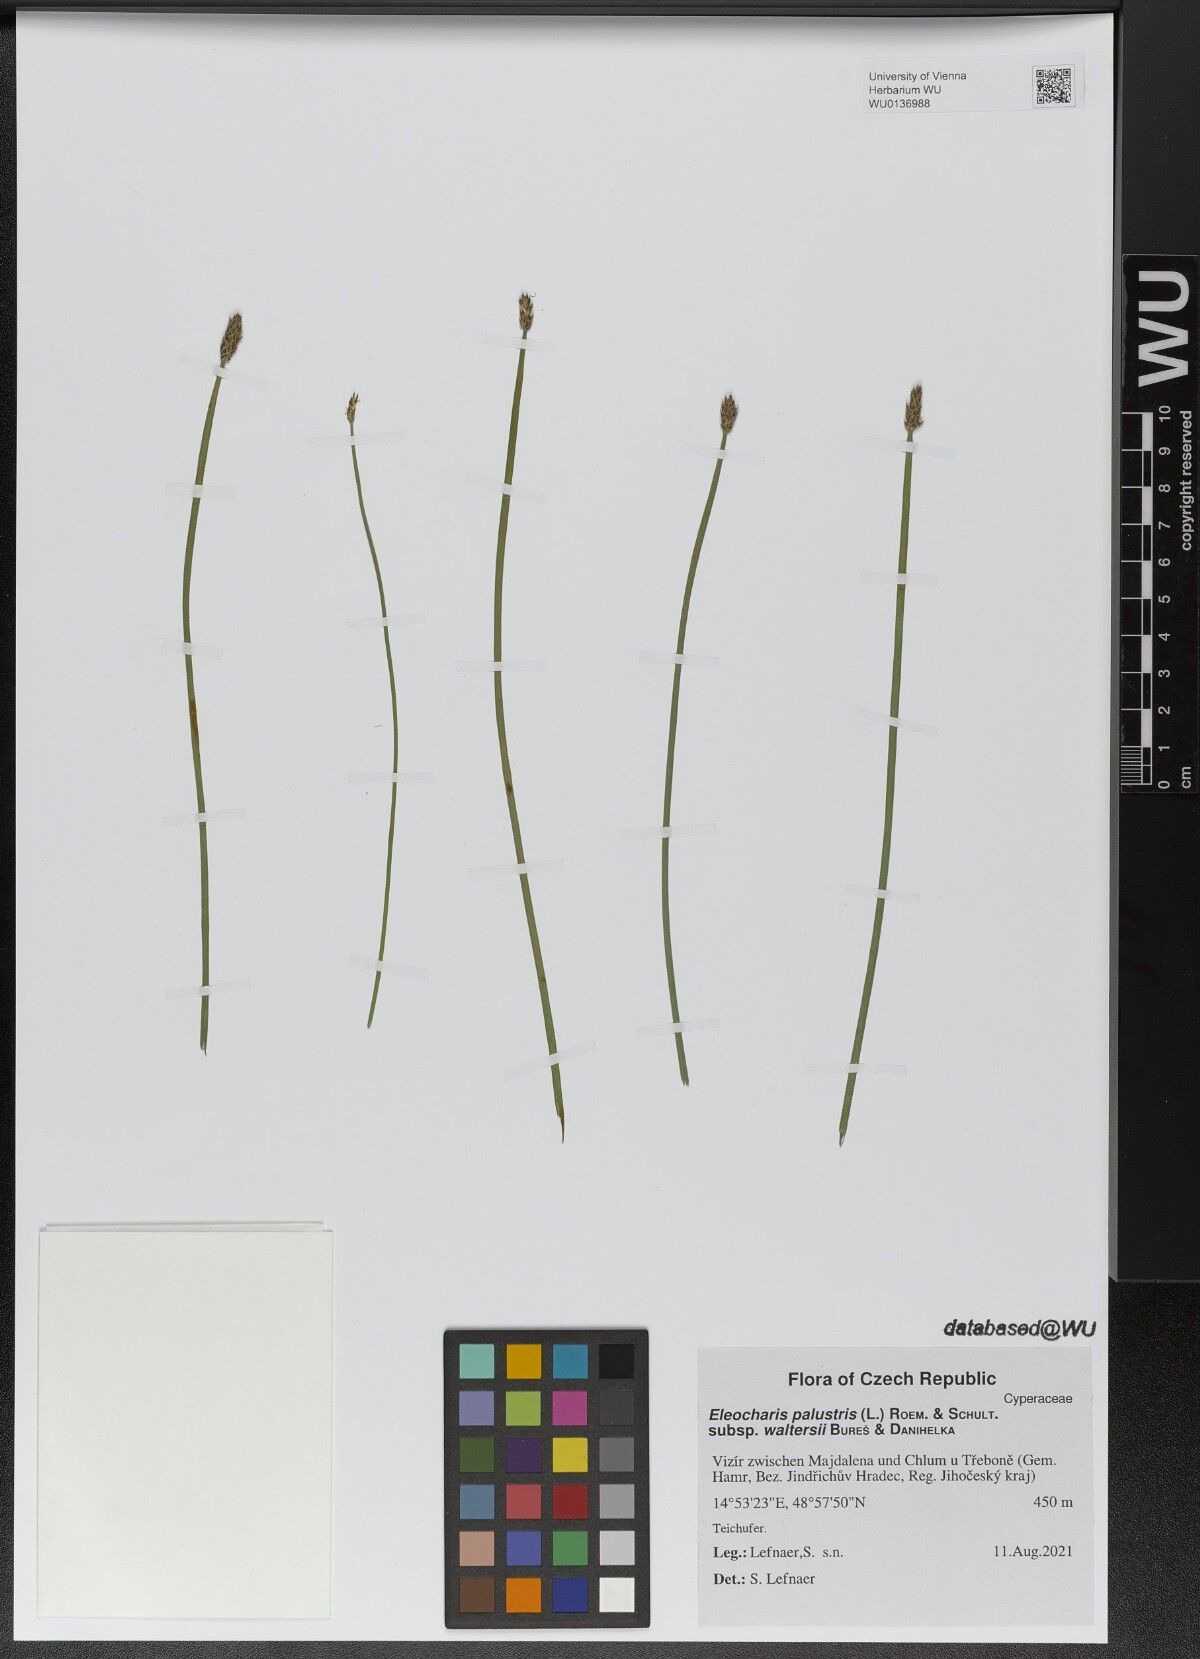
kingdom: Plantae
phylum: Tracheophyta
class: Liliopsida
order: Poales
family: Cyperaceae
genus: Eleocharis
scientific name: Eleocharis palustris
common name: Common spike-rush
